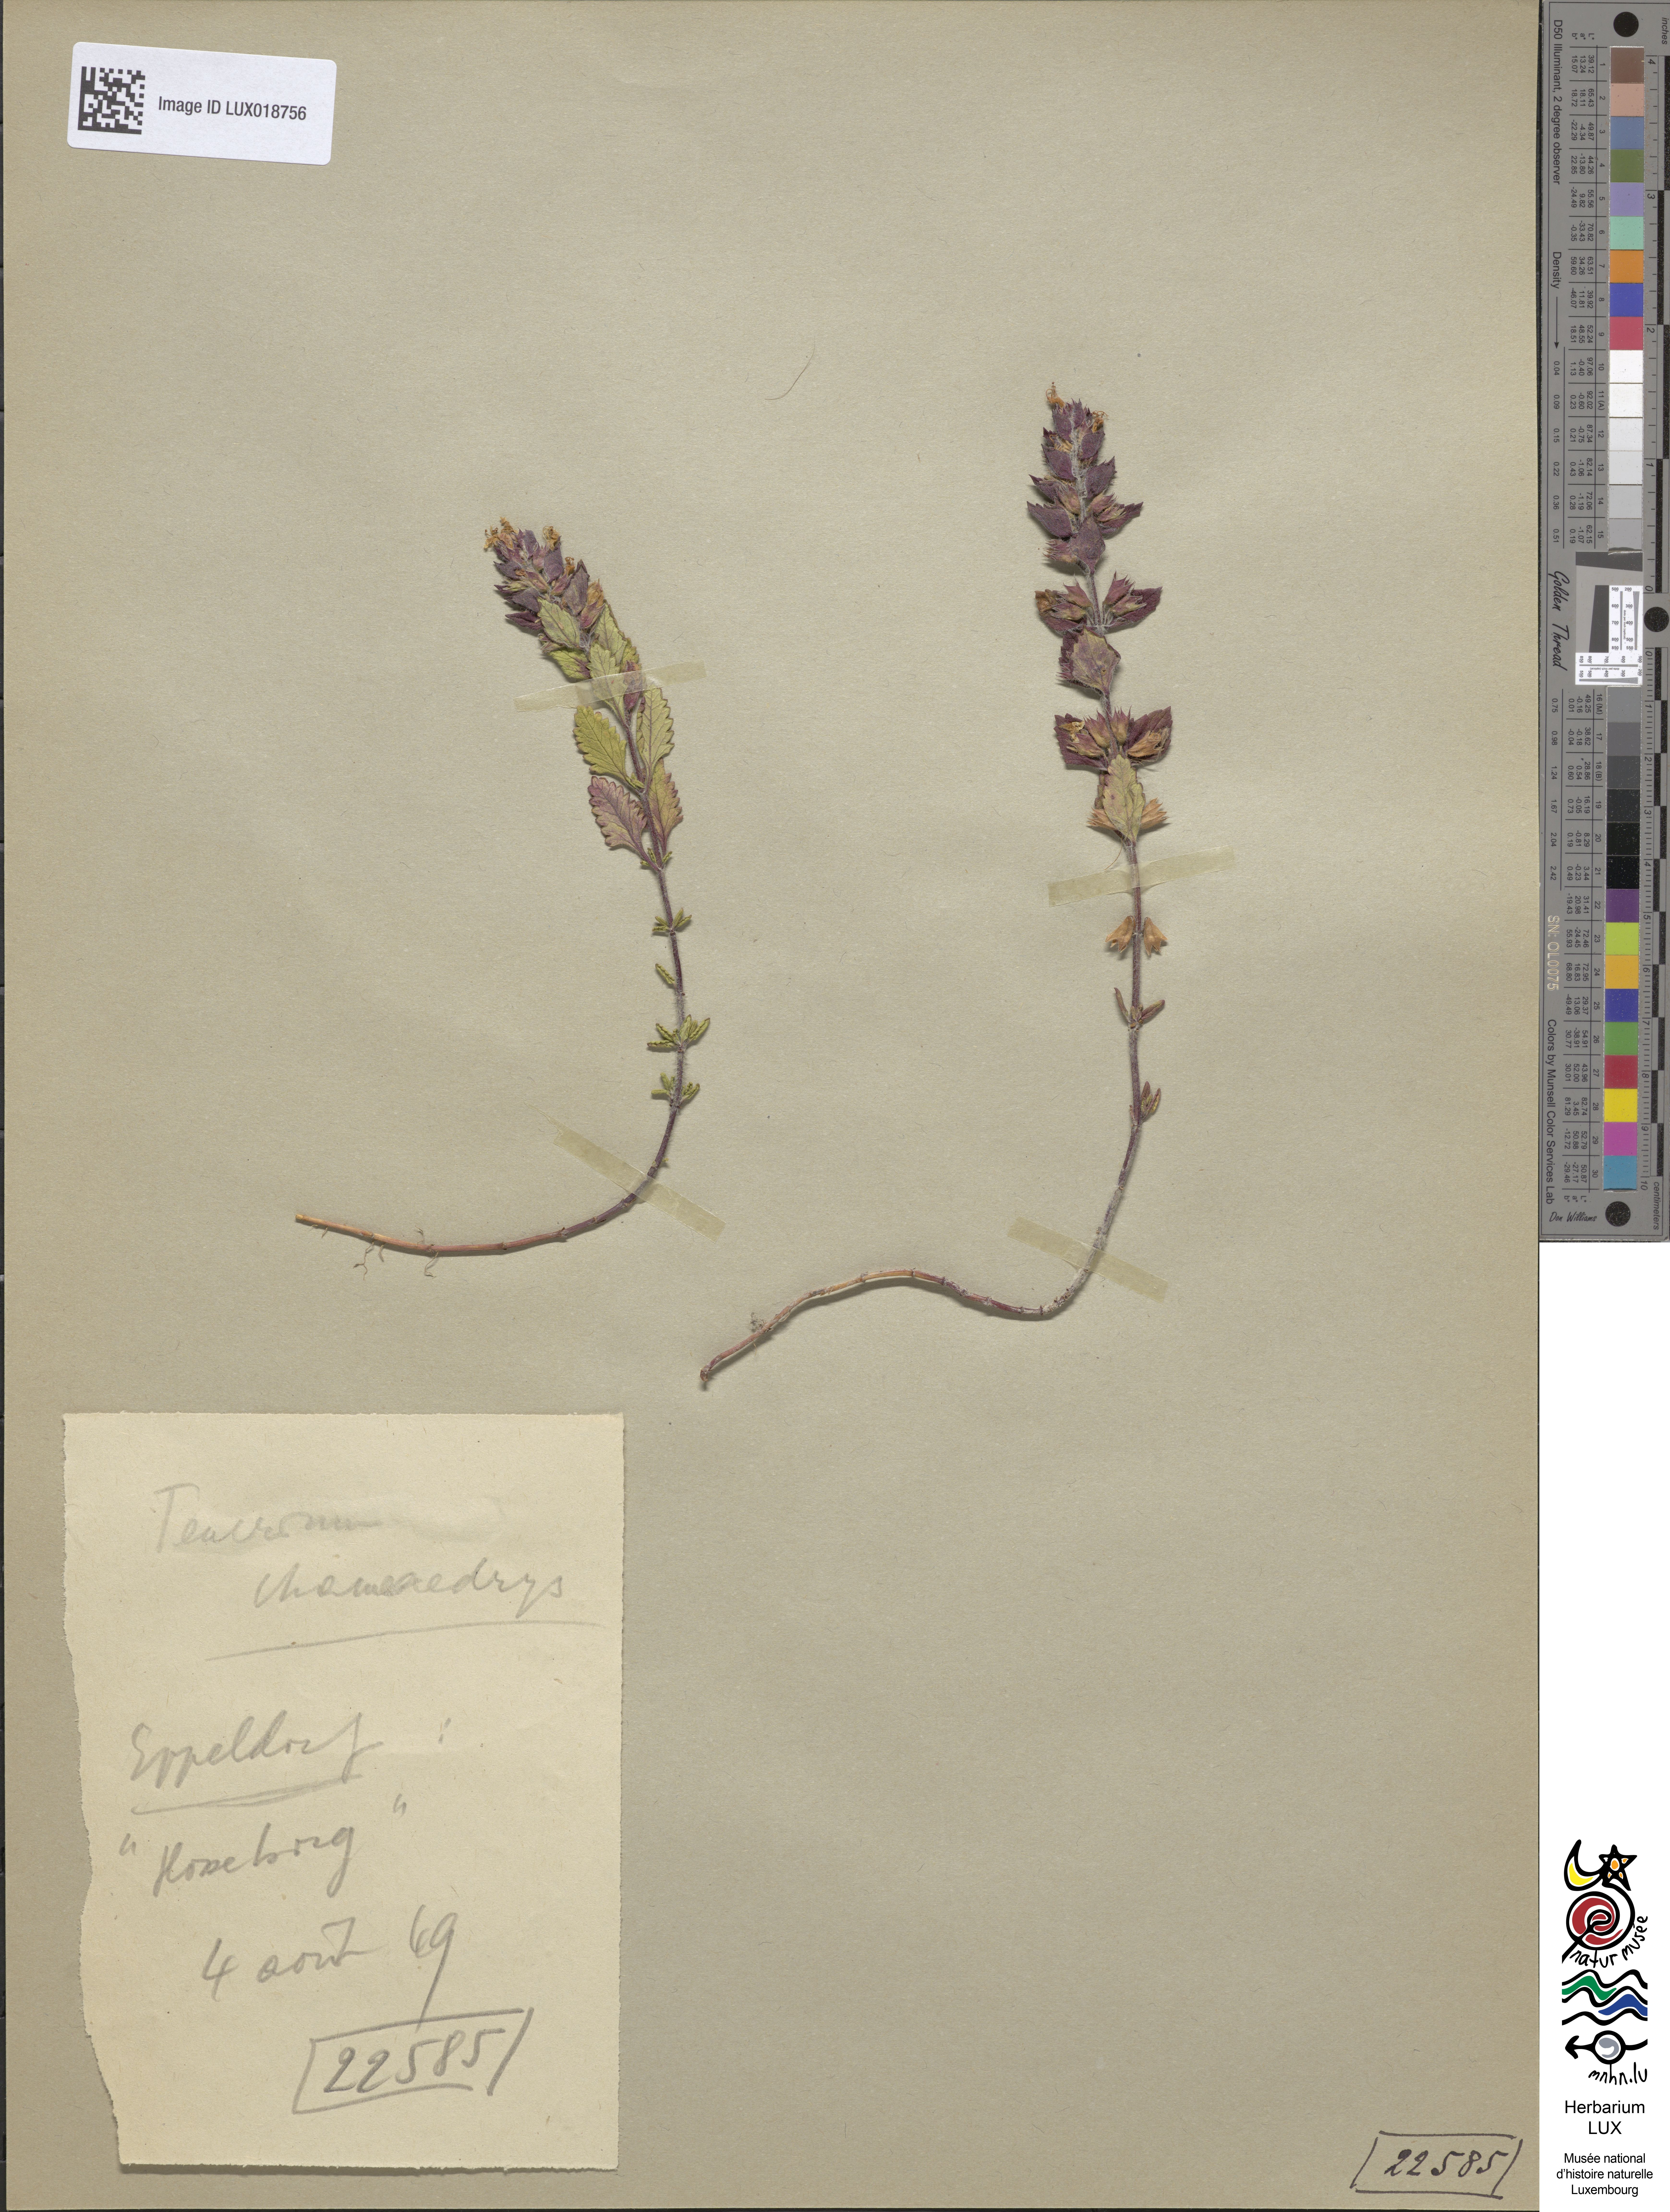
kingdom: Plantae
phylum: Tracheophyta
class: Magnoliopsida
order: Lamiales
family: Lamiaceae
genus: Teucrium
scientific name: Teucrium chamaedrys
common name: Wall germander
